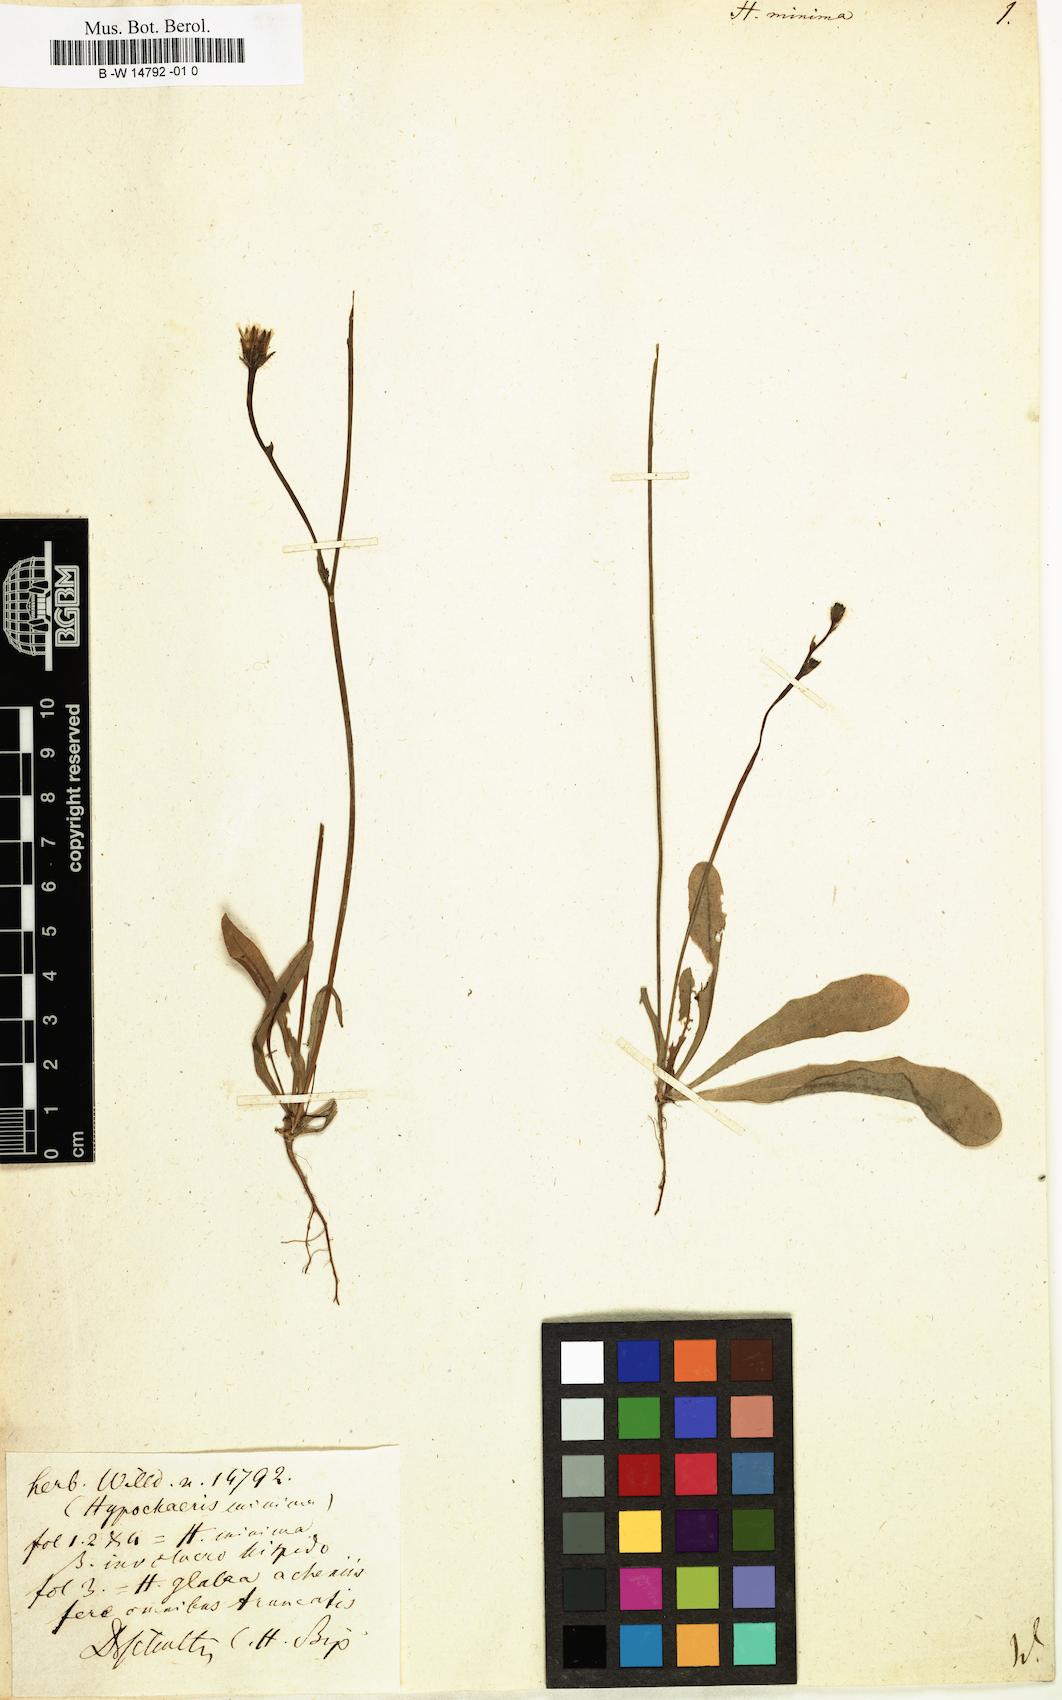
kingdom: Plantae
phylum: Tracheophyta
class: Magnoliopsida
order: Asterales
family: Asteraceae
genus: Hypochaeris
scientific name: Hypochaeris
